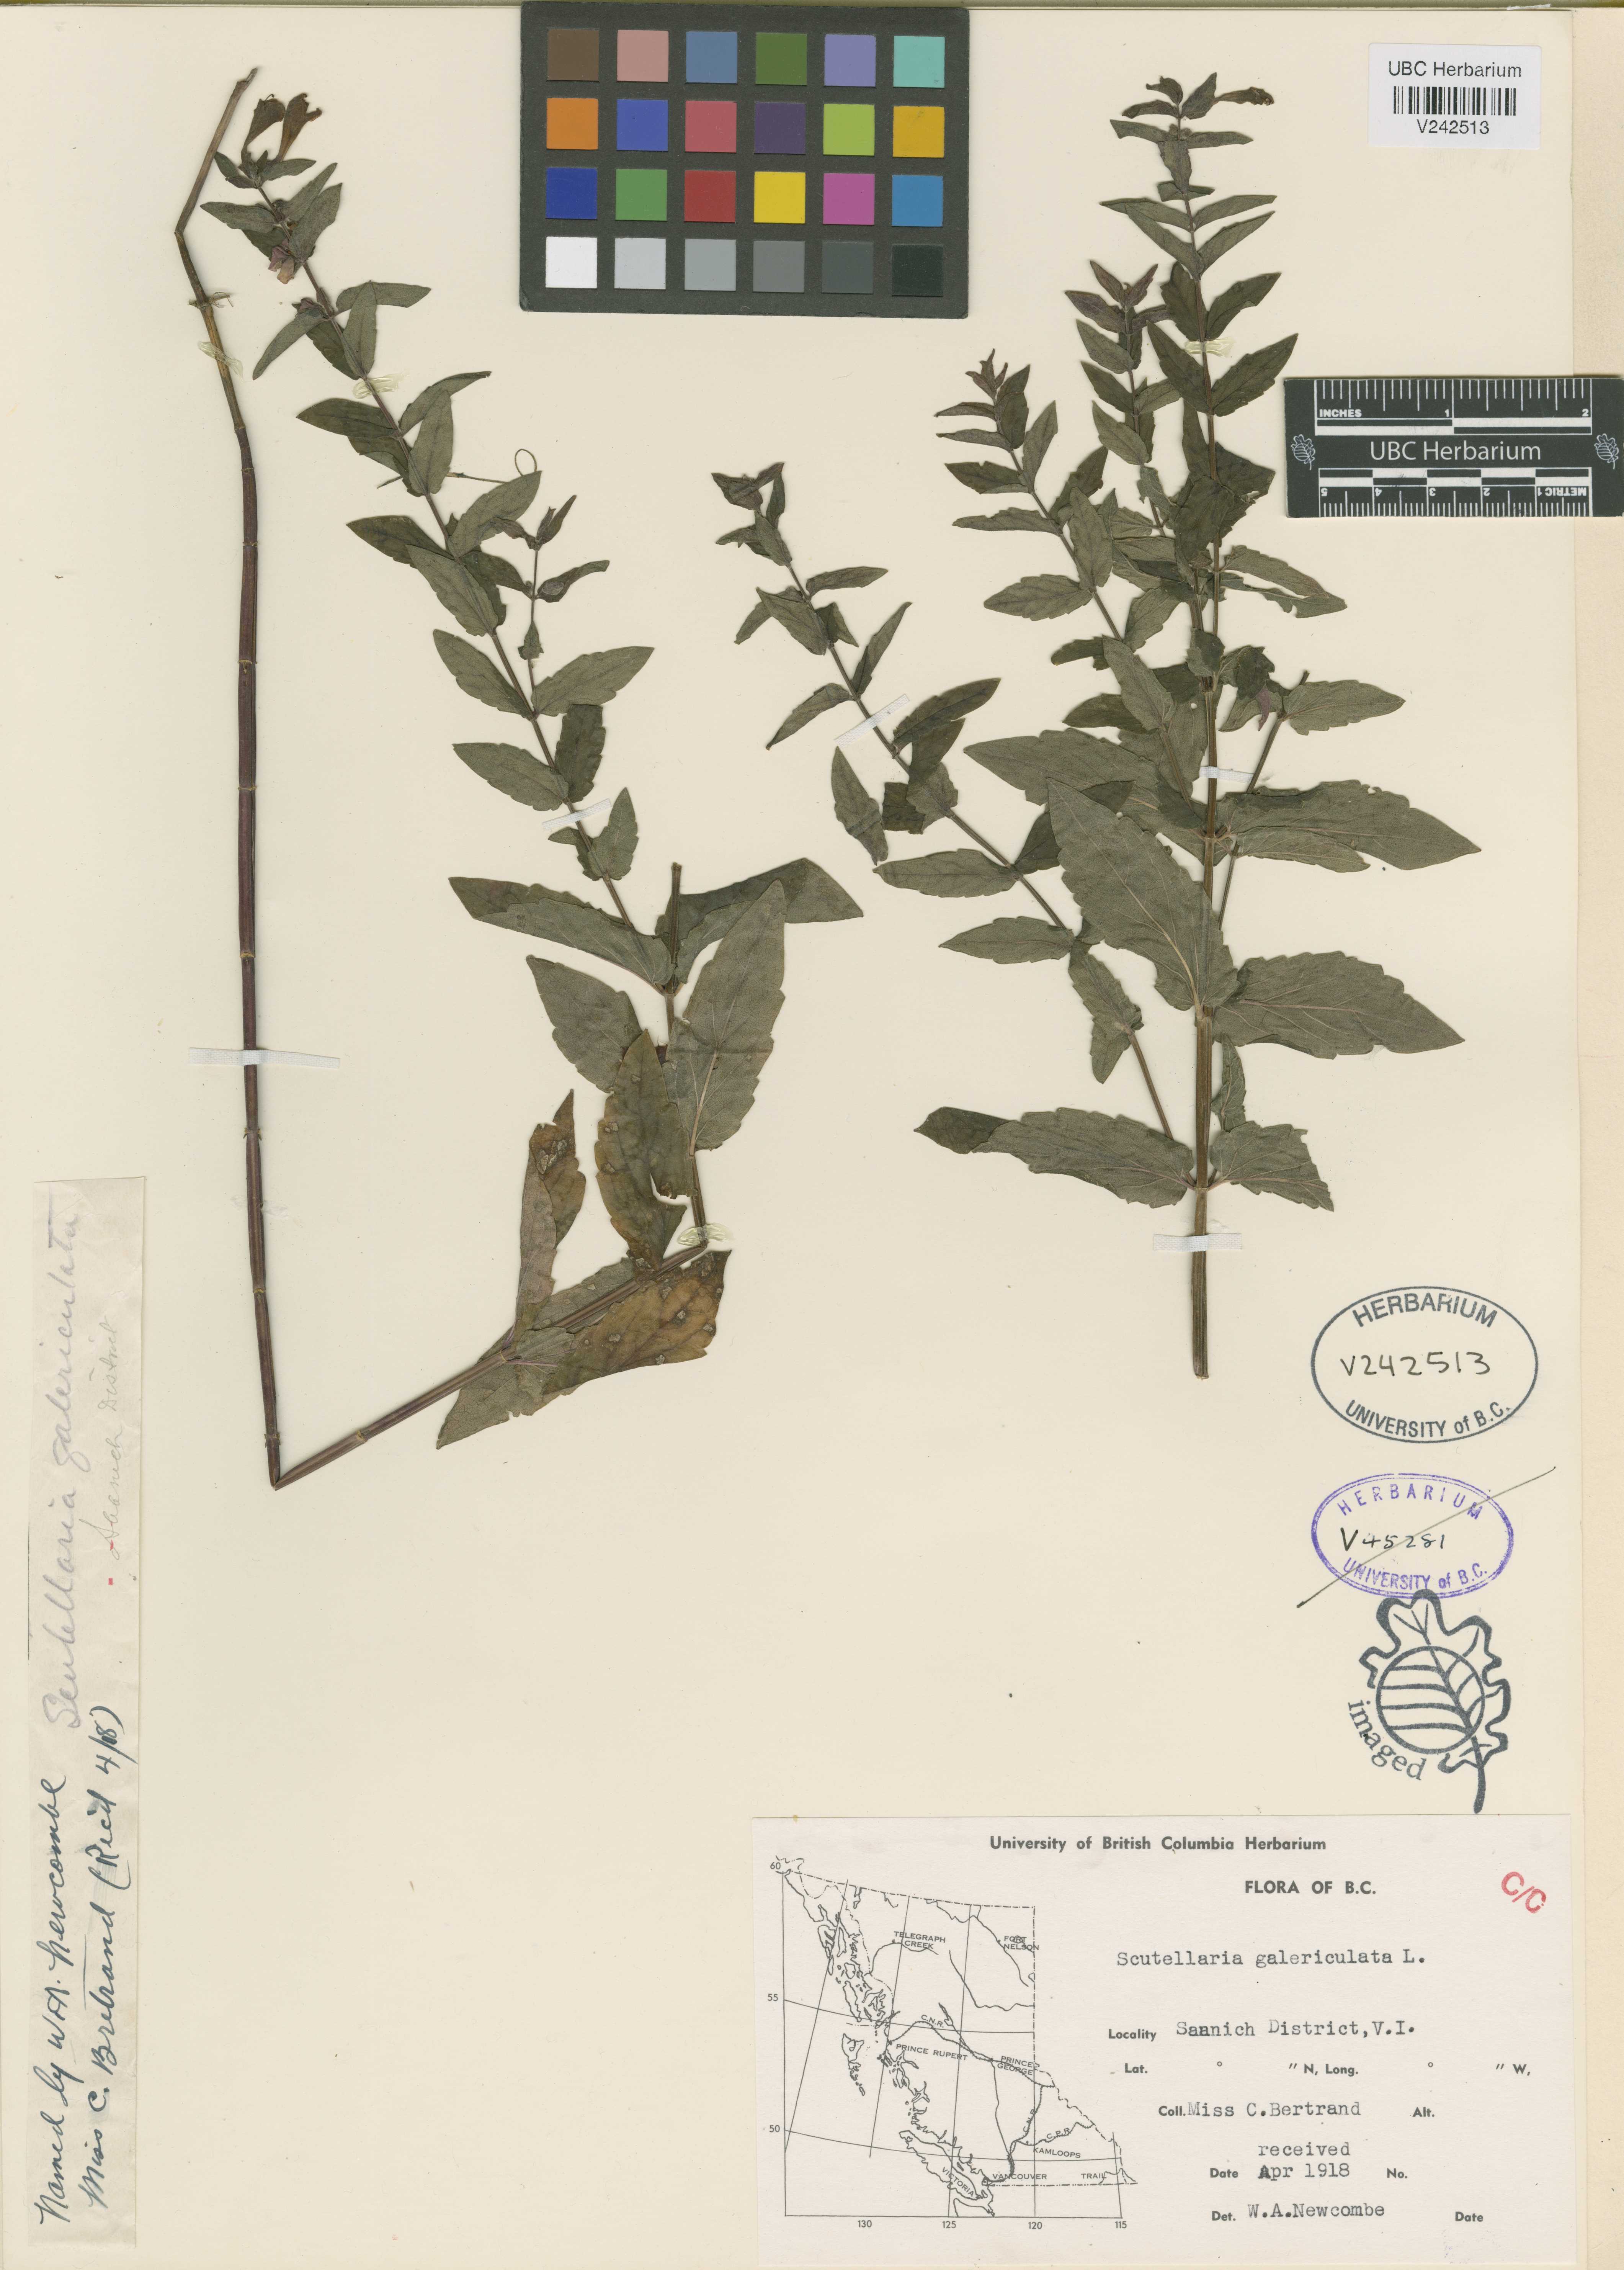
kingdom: Plantae
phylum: Tracheophyta
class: Magnoliopsida
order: Lamiales
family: Lamiaceae
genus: Scutellaria
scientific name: Scutellaria galericulata
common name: Skullcap
